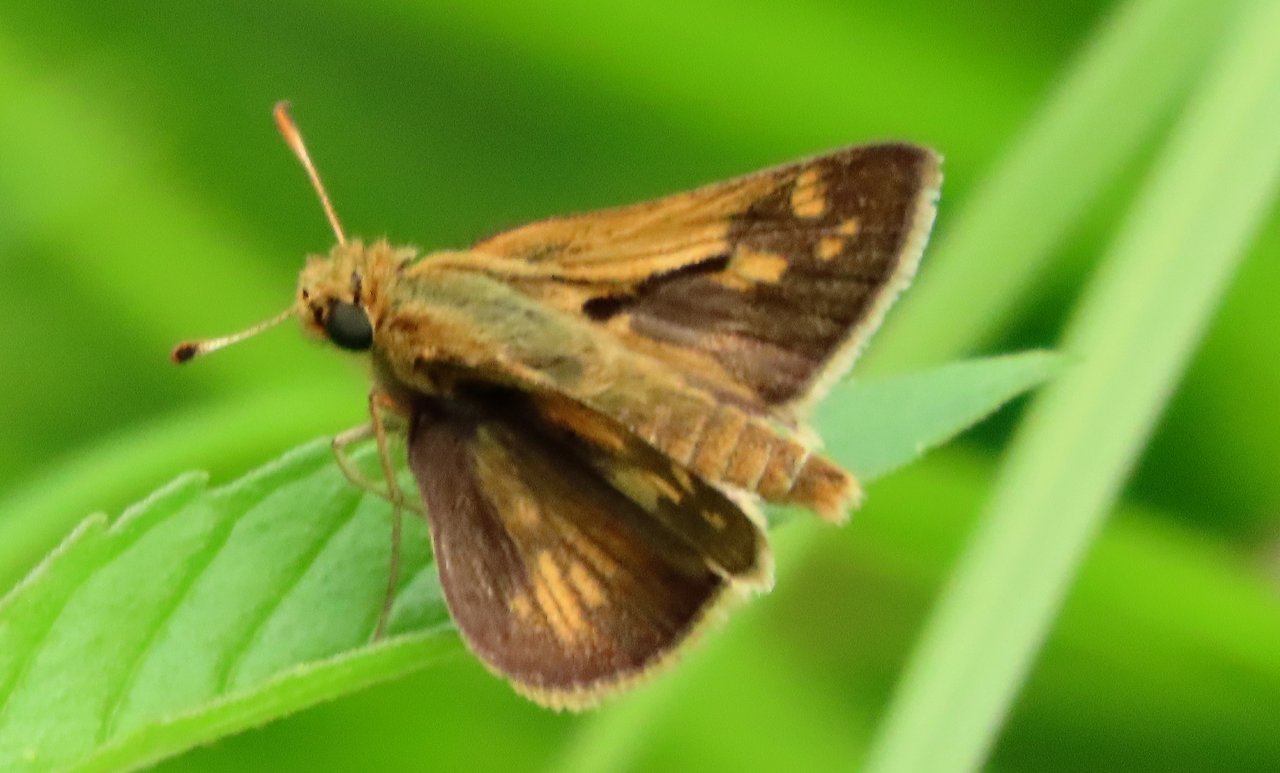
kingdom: Animalia
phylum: Arthropoda
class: Insecta
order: Lepidoptera
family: Hesperiidae
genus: Polites
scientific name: Polites coras
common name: Peck's Skipper
